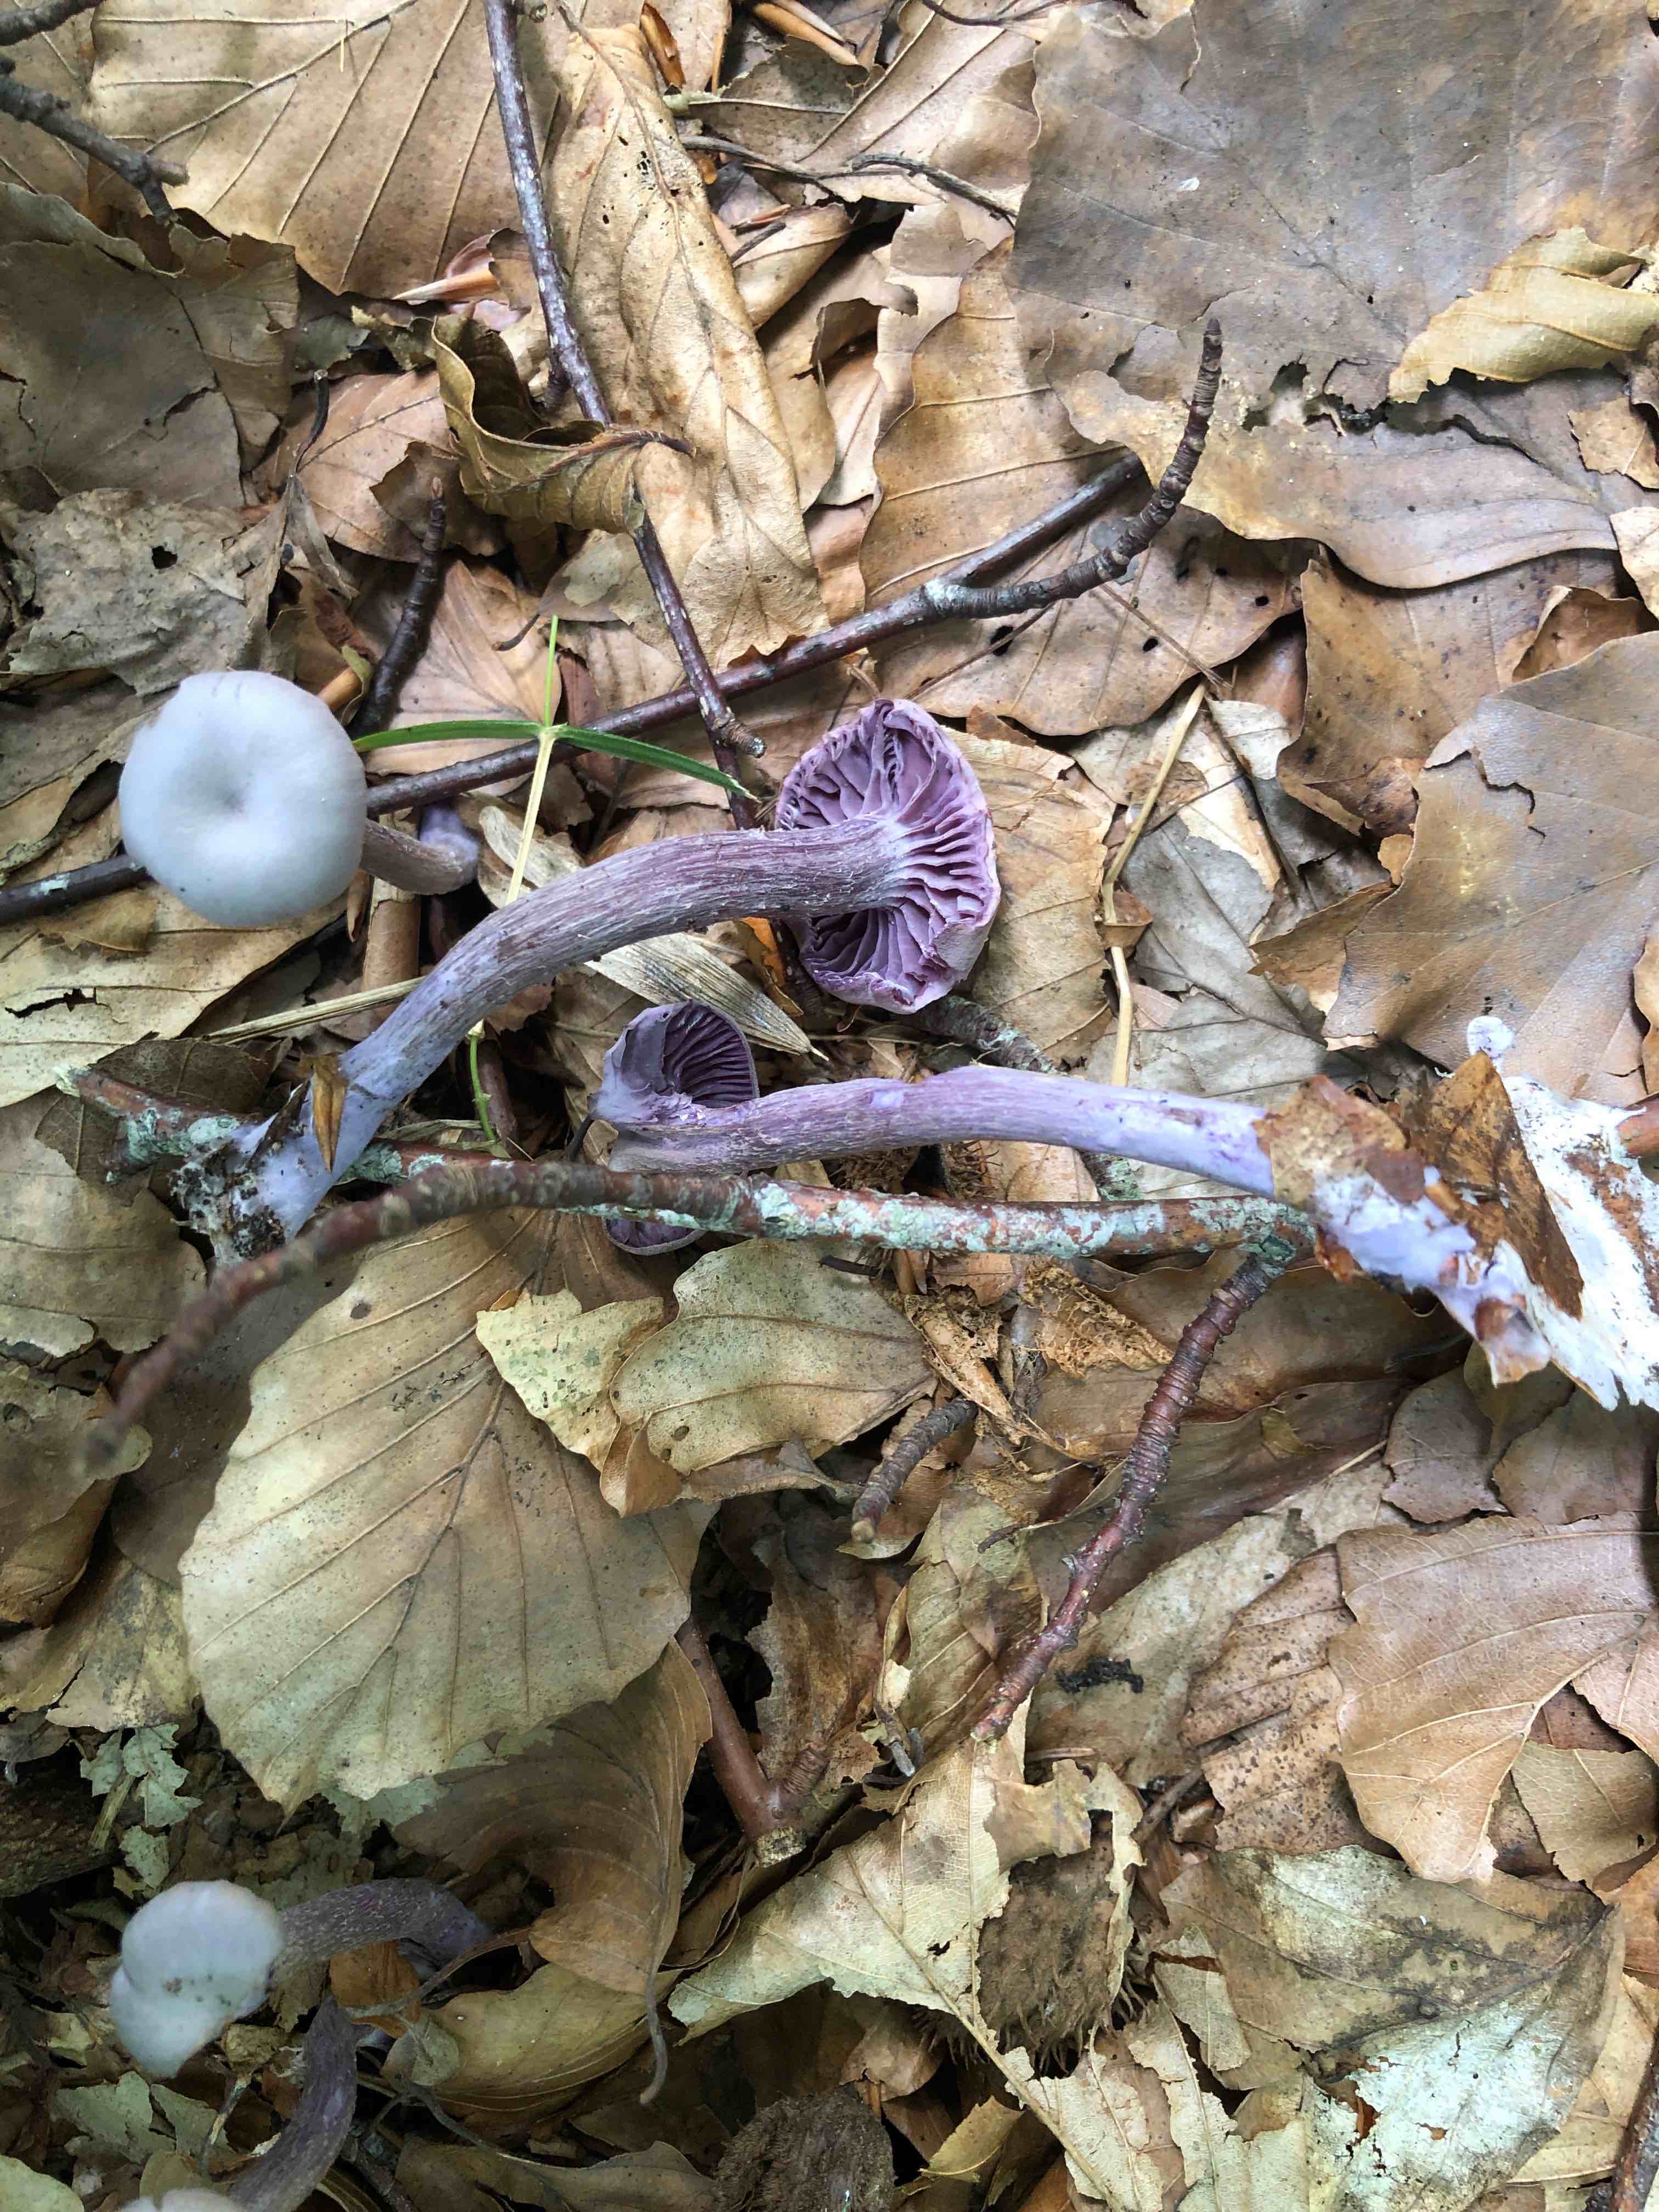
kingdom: Fungi
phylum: Basidiomycota
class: Agaricomycetes
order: Agaricales
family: Hydnangiaceae
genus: Laccaria
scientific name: Laccaria amethystina
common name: violet ametysthat
